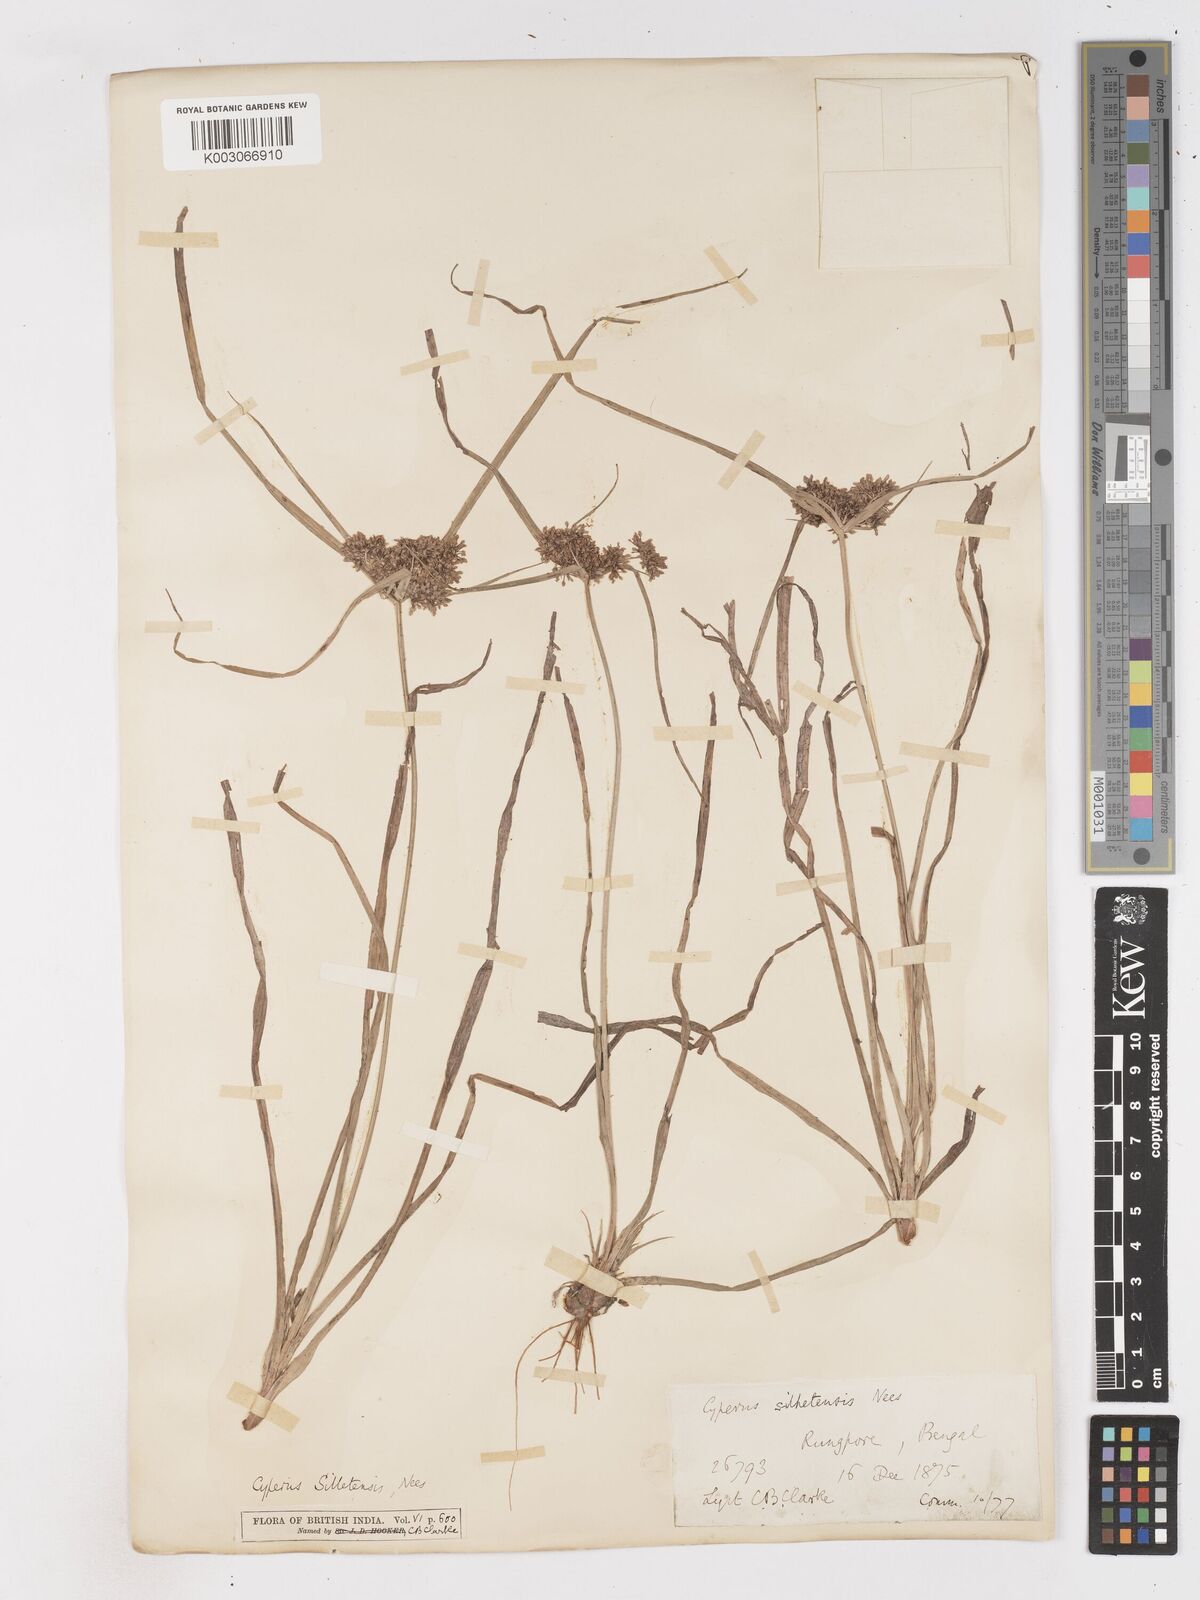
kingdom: Plantae
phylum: Tracheophyta
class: Liliopsida
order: Poales
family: Cyperaceae
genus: Cyperus
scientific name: Cyperus silletensis
